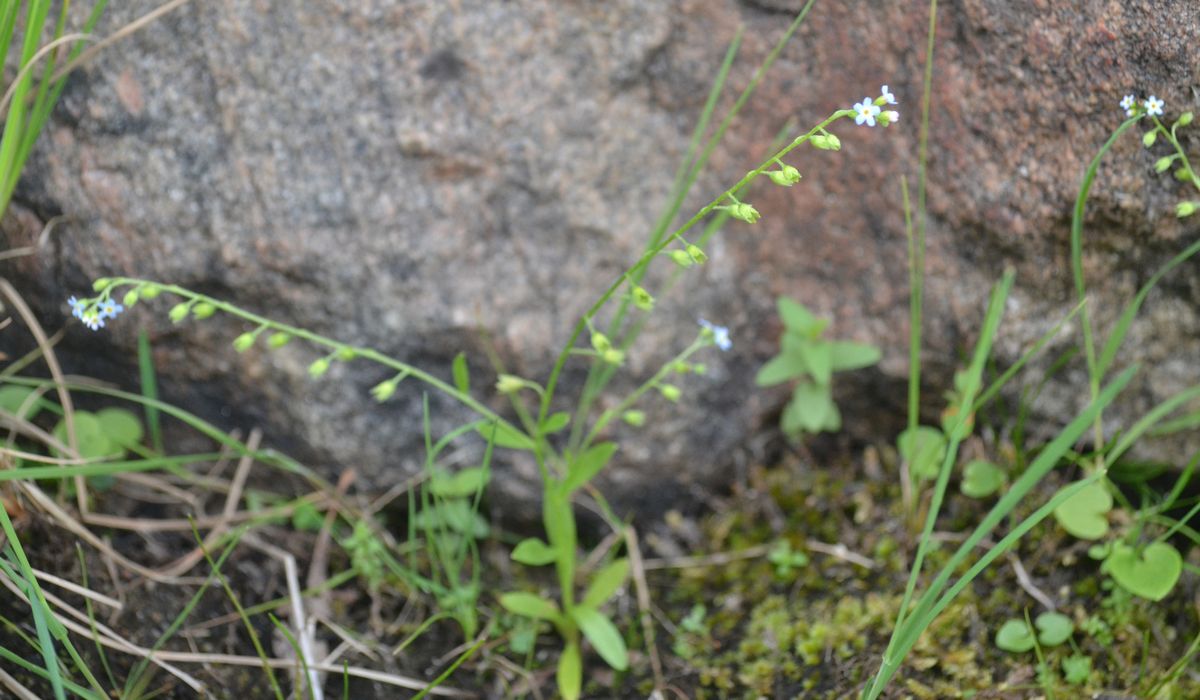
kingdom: Plantae
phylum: Tracheophyta
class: Magnoliopsida
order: Boraginales
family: Boraginaceae
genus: Myosotis
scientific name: Myosotis laxa
